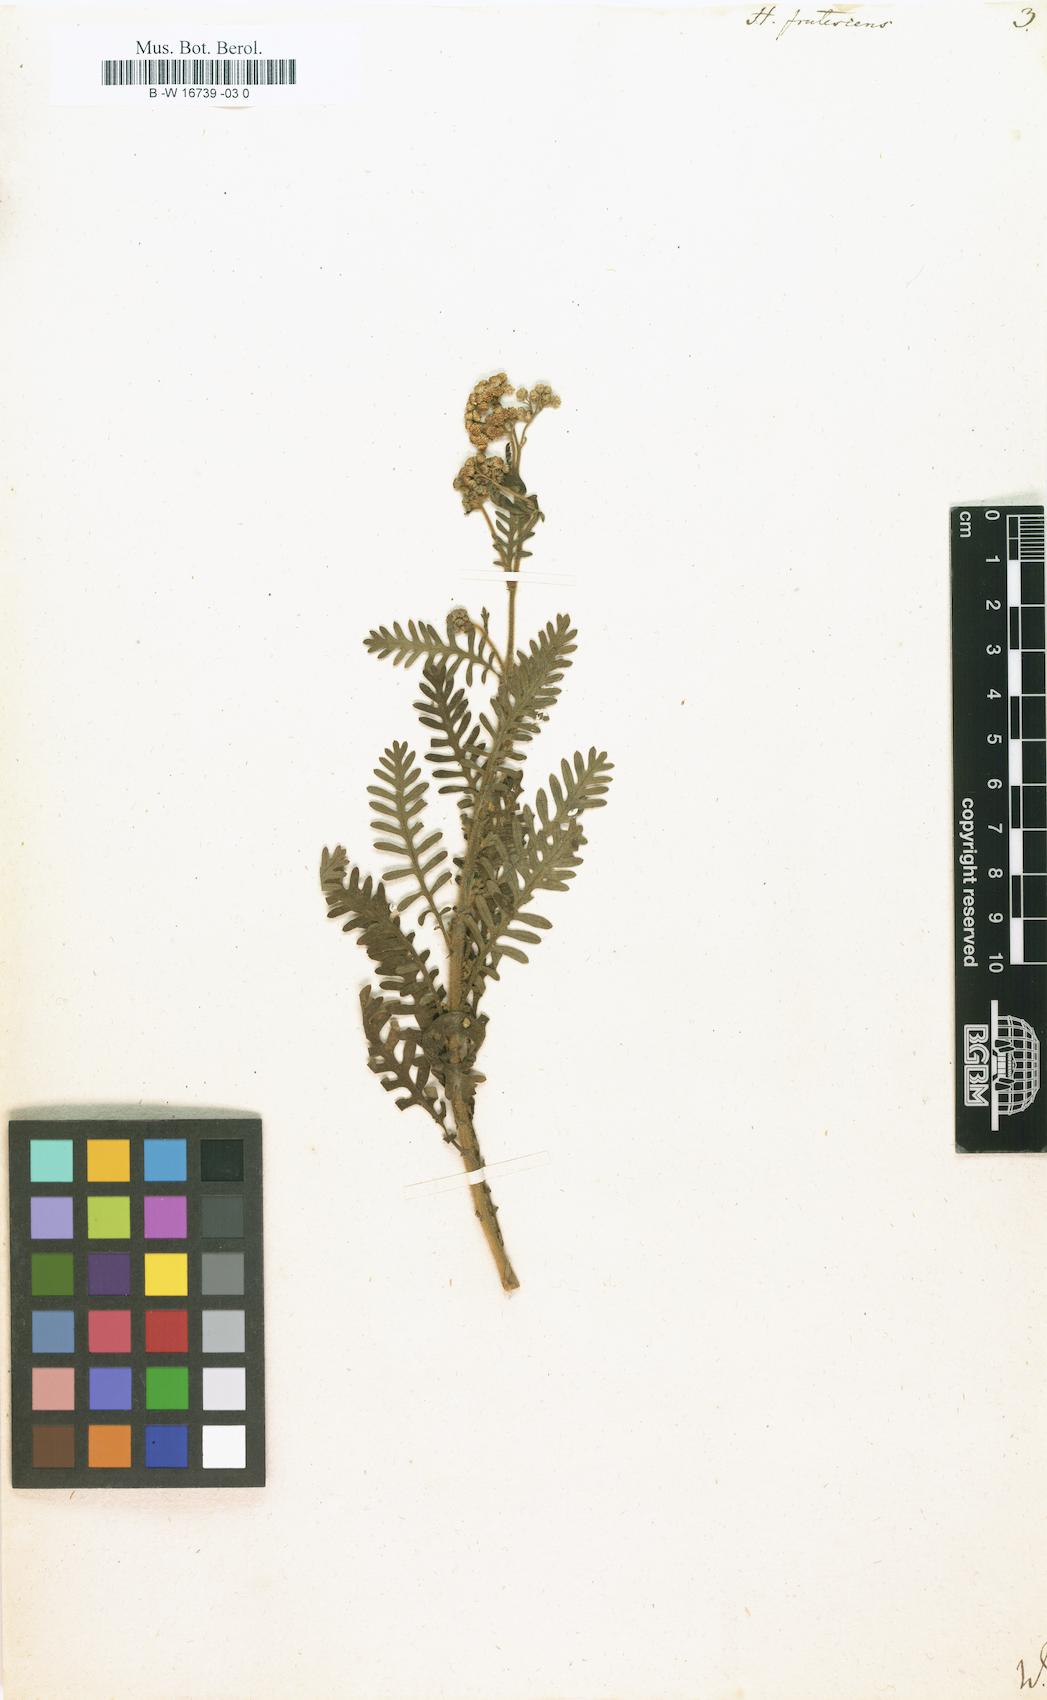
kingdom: Plantae
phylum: Tracheophyta
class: Magnoliopsida
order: Asterales
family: Asteraceae
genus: Hippia
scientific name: Hippia frutescens
